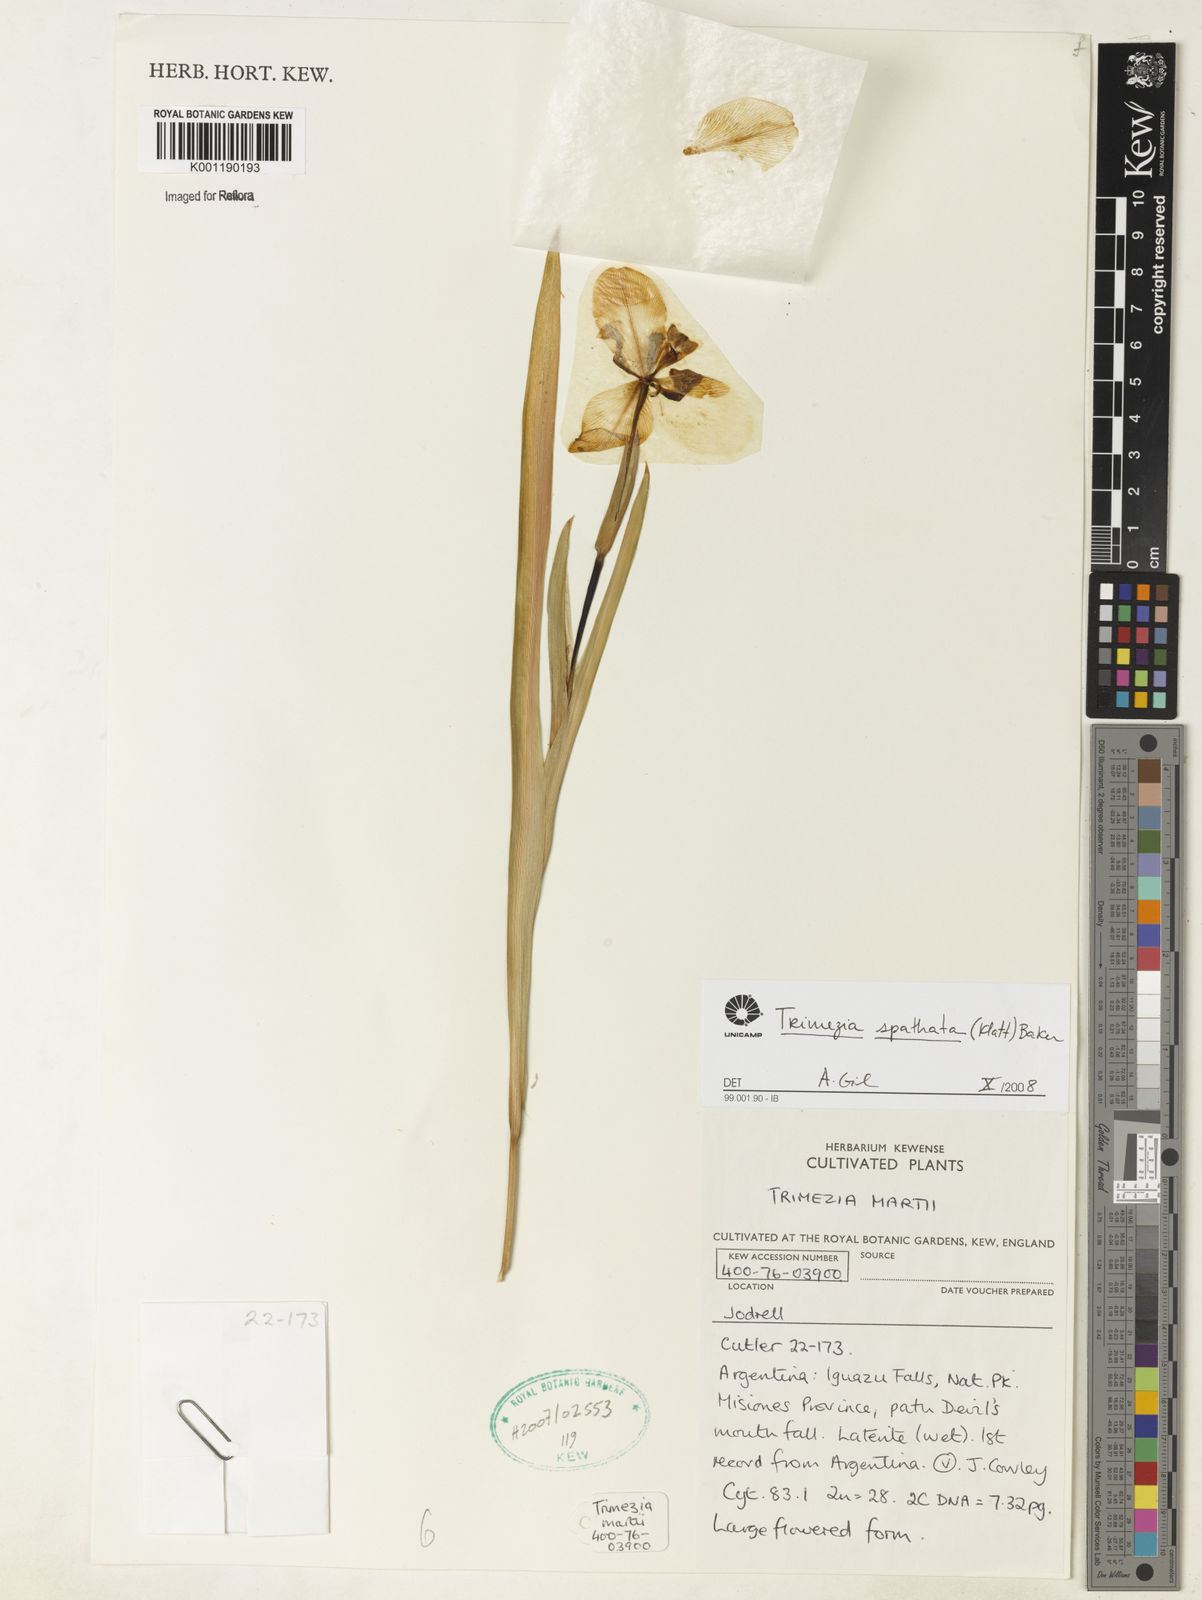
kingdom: Plantae
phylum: Tracheophyta
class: Liliopsida
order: Asparagales
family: Iridaceae
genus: Trimezia
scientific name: Trimezia spathata
